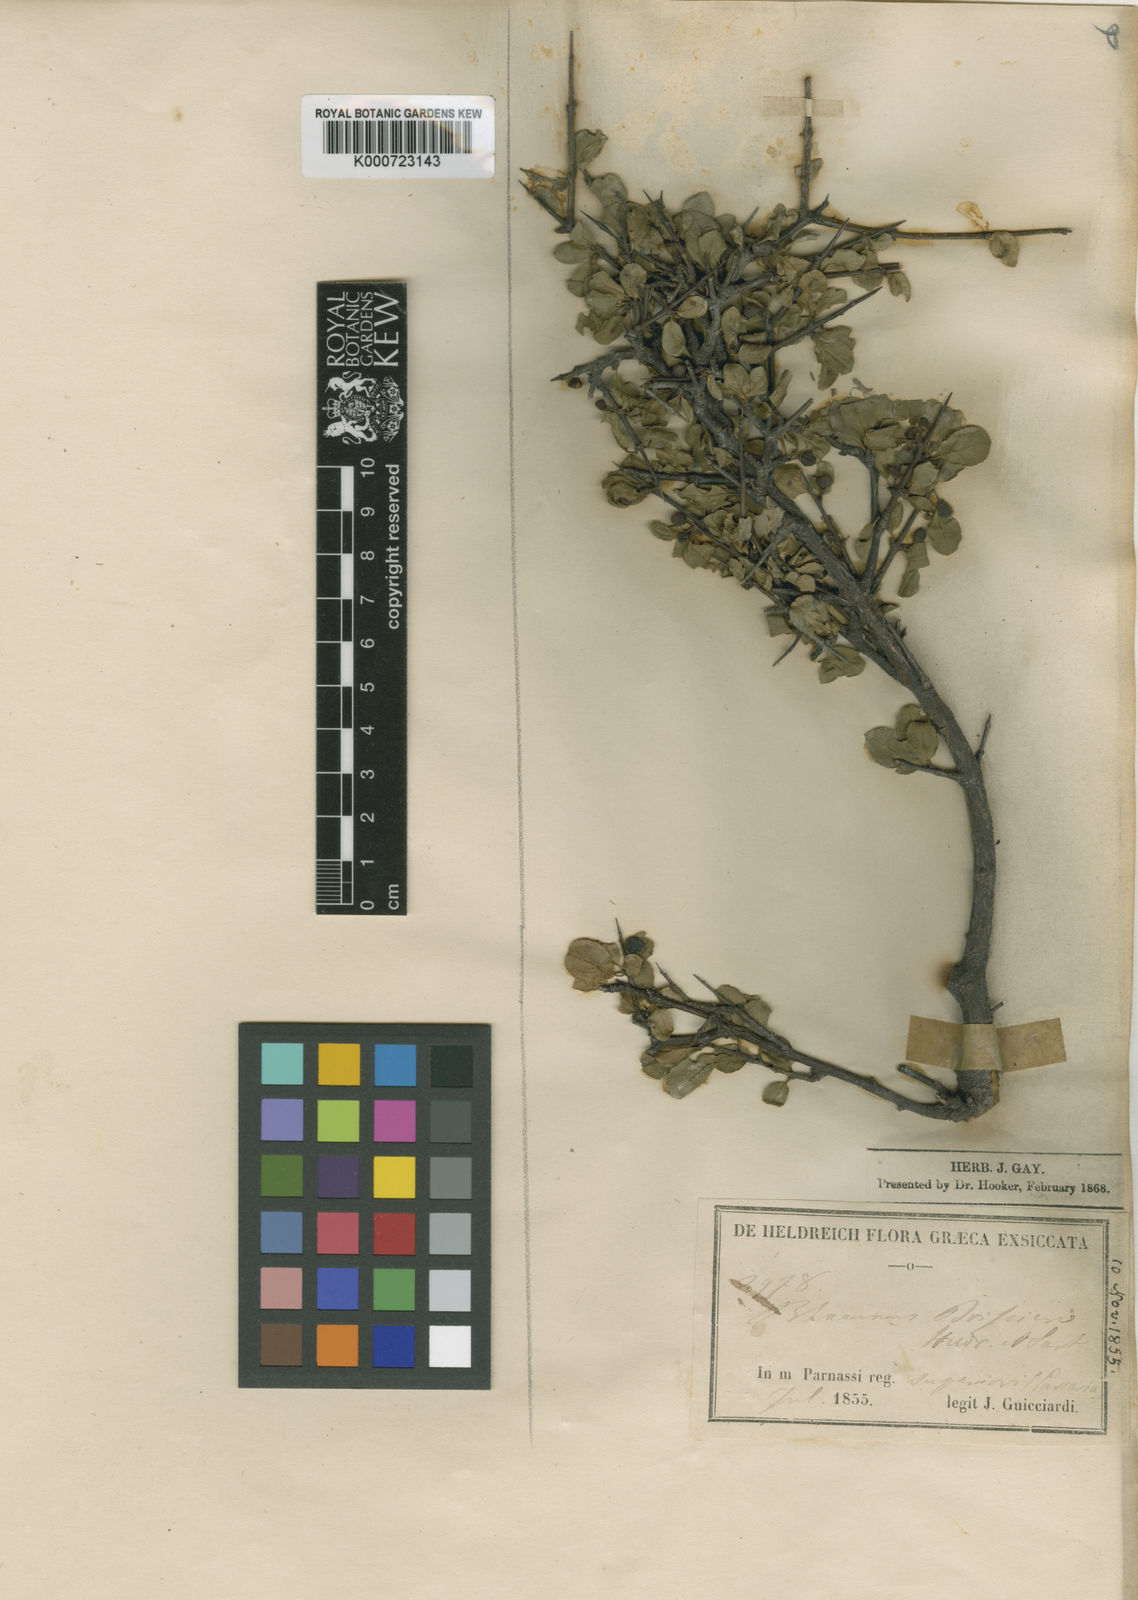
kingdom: Plantae
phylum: Tracheophyta
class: Magnoliopsida
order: Rosales
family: Rhamnaceae
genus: Rhamnus
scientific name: Rhamnus saxatilis
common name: Rock buckthorn
